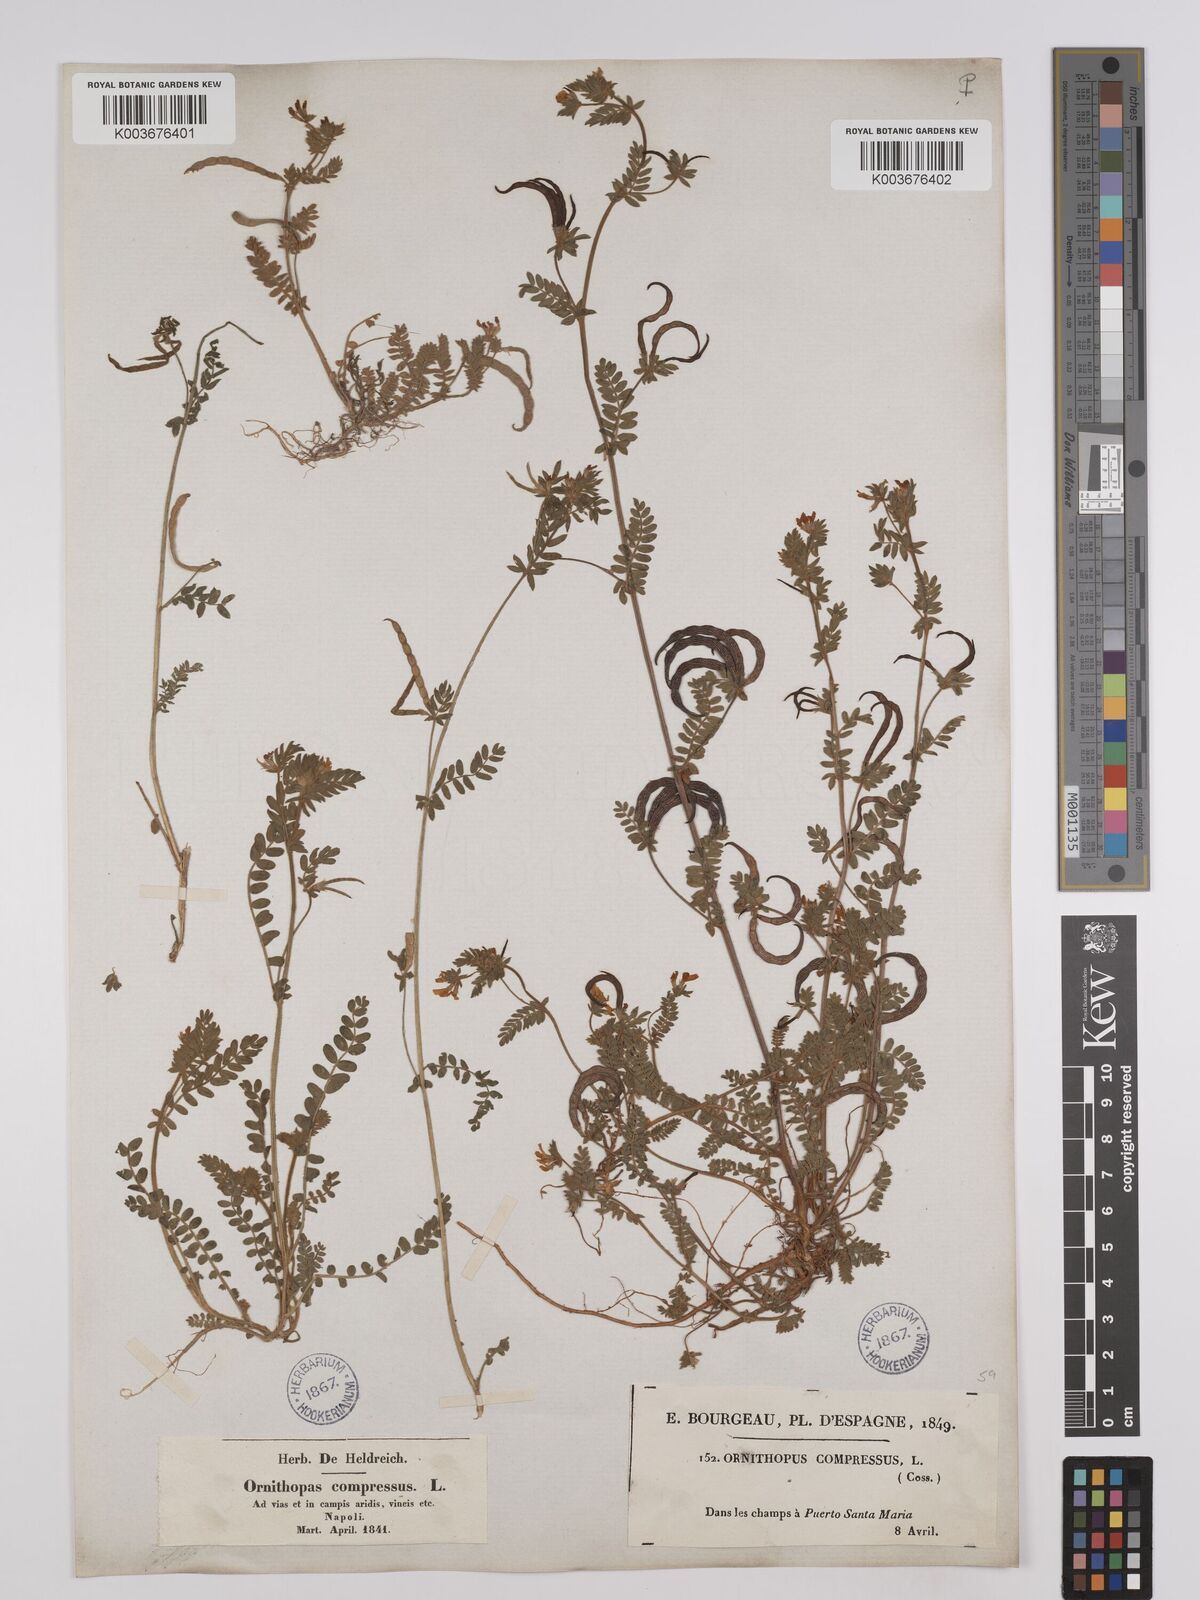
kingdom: Plantae
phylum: Tracheophyta
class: Magnoliopsida
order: Fabales
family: Fabaceae
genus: Ornithopus
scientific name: Ornithopus compressus
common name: Yellow serradella
